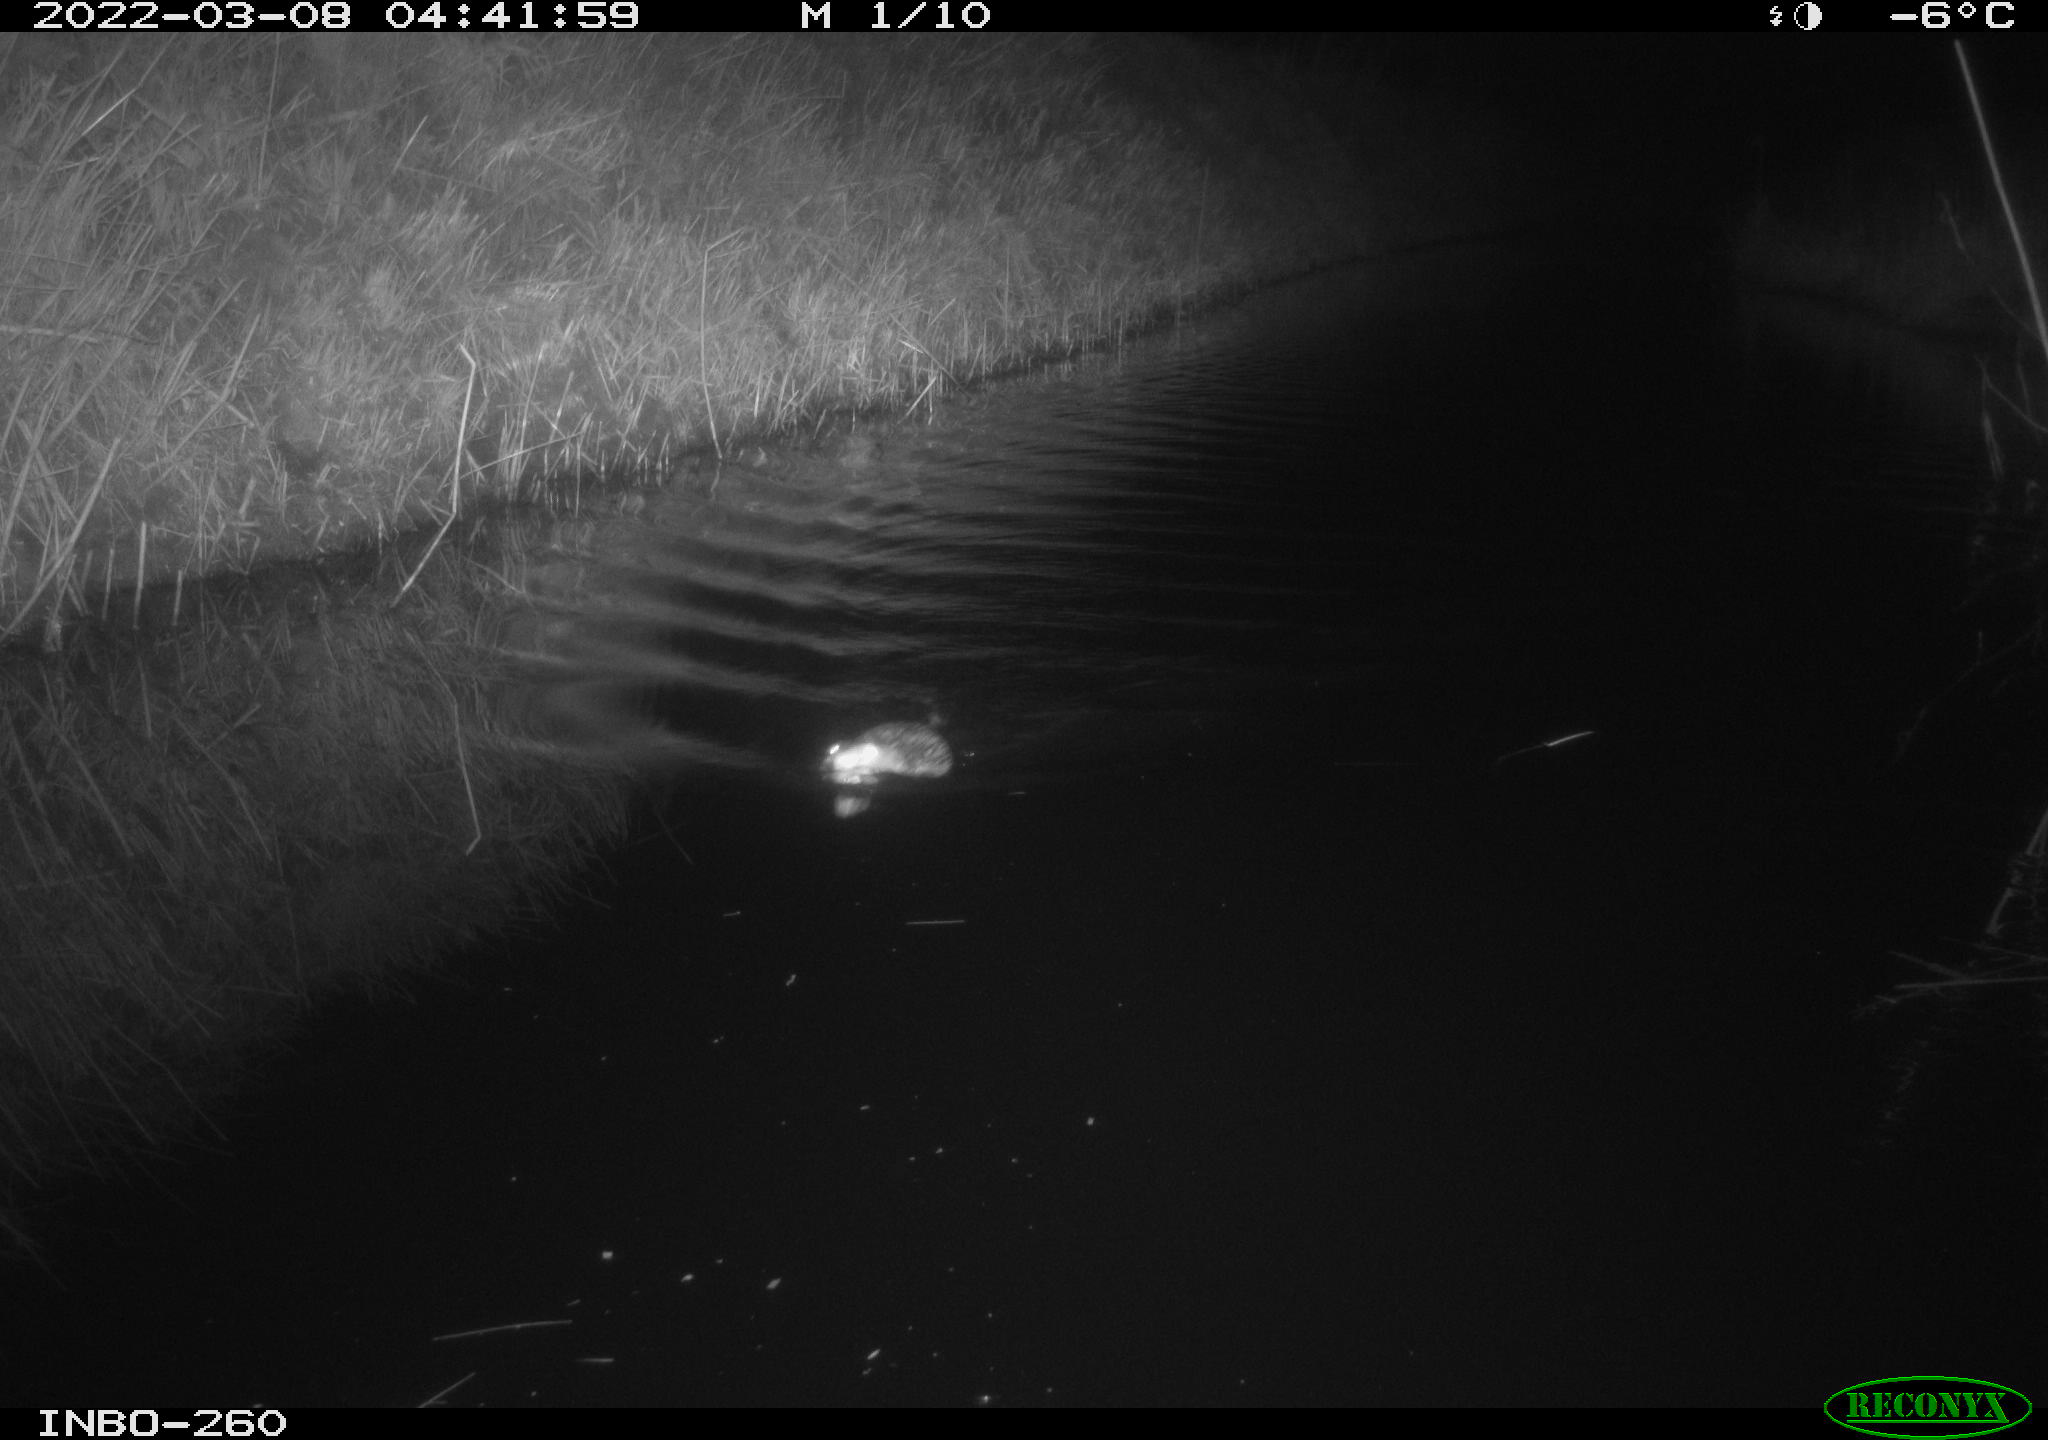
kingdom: Animalia
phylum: Chordata
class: Mammalia
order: Rodentia
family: Cricetidae
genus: Ondatra
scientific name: Ondatra zibethicus
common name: Muskrat
